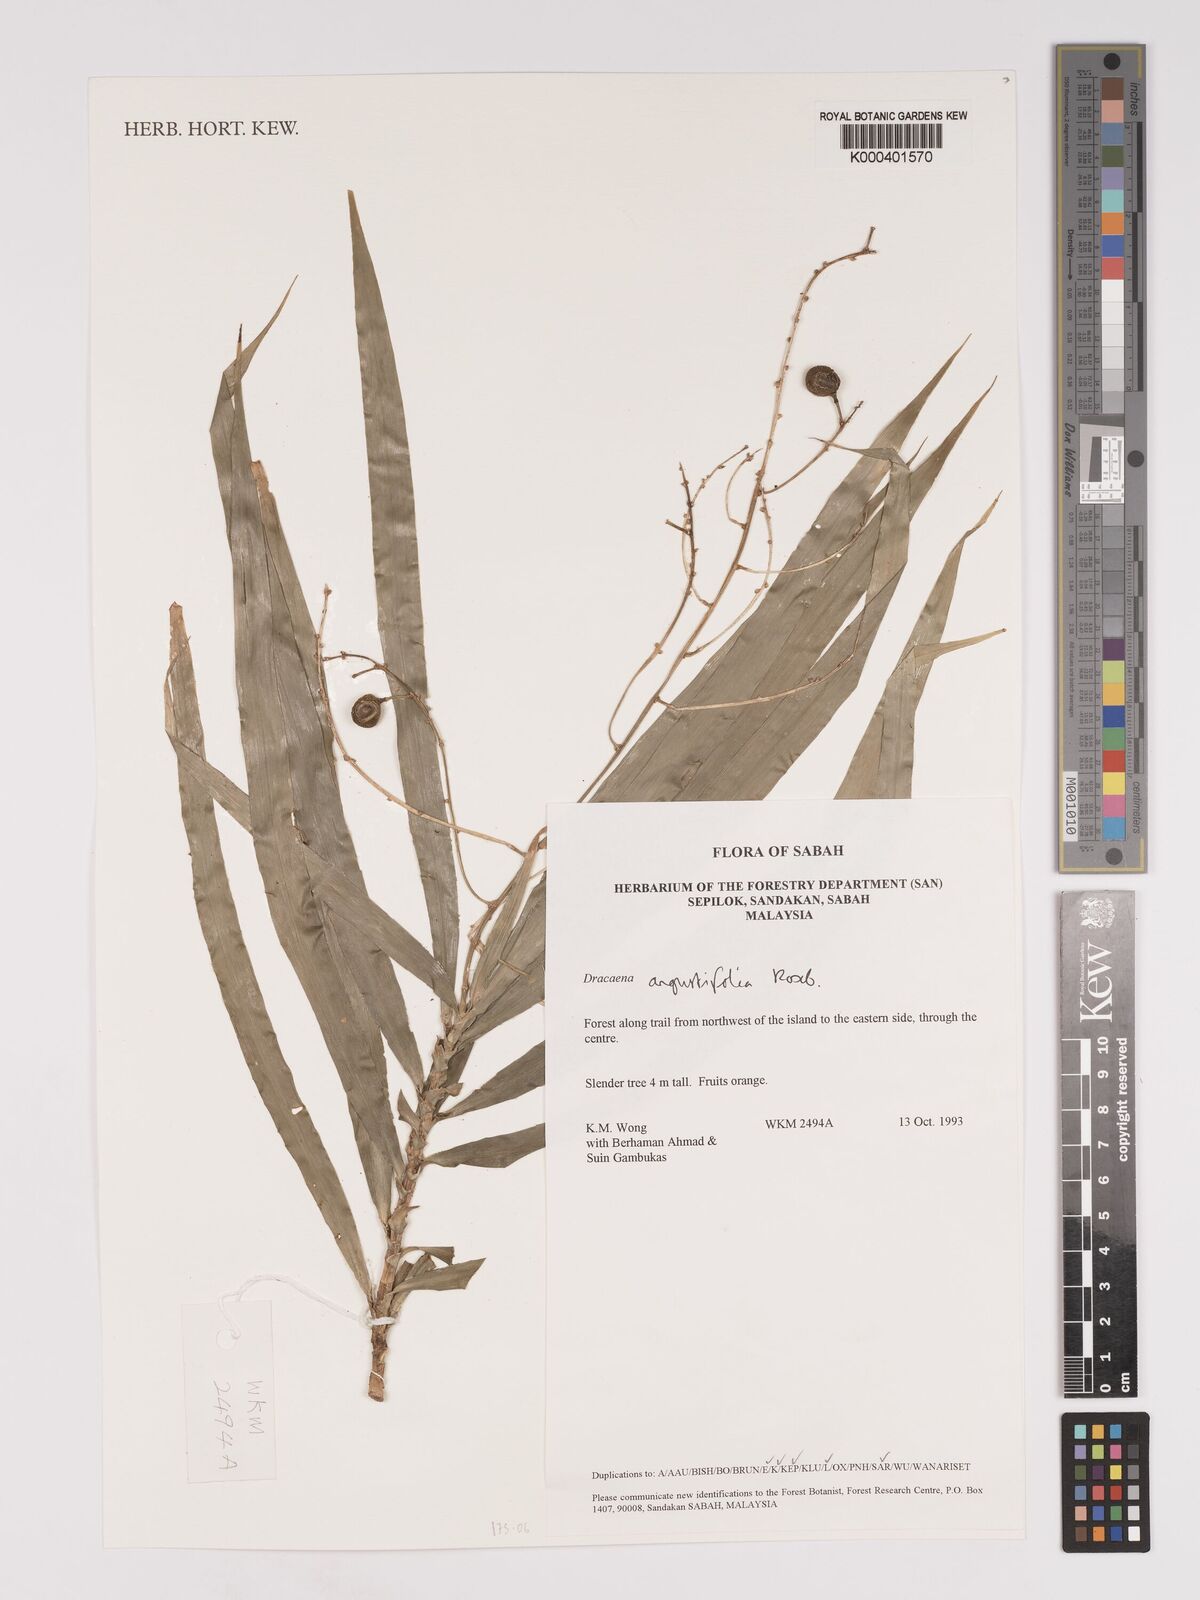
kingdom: Plantae
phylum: Tracheophyta
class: Liliopsida
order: Asparagales
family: Asparagaceae
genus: Dracaena
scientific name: Dracaena angustifolia
